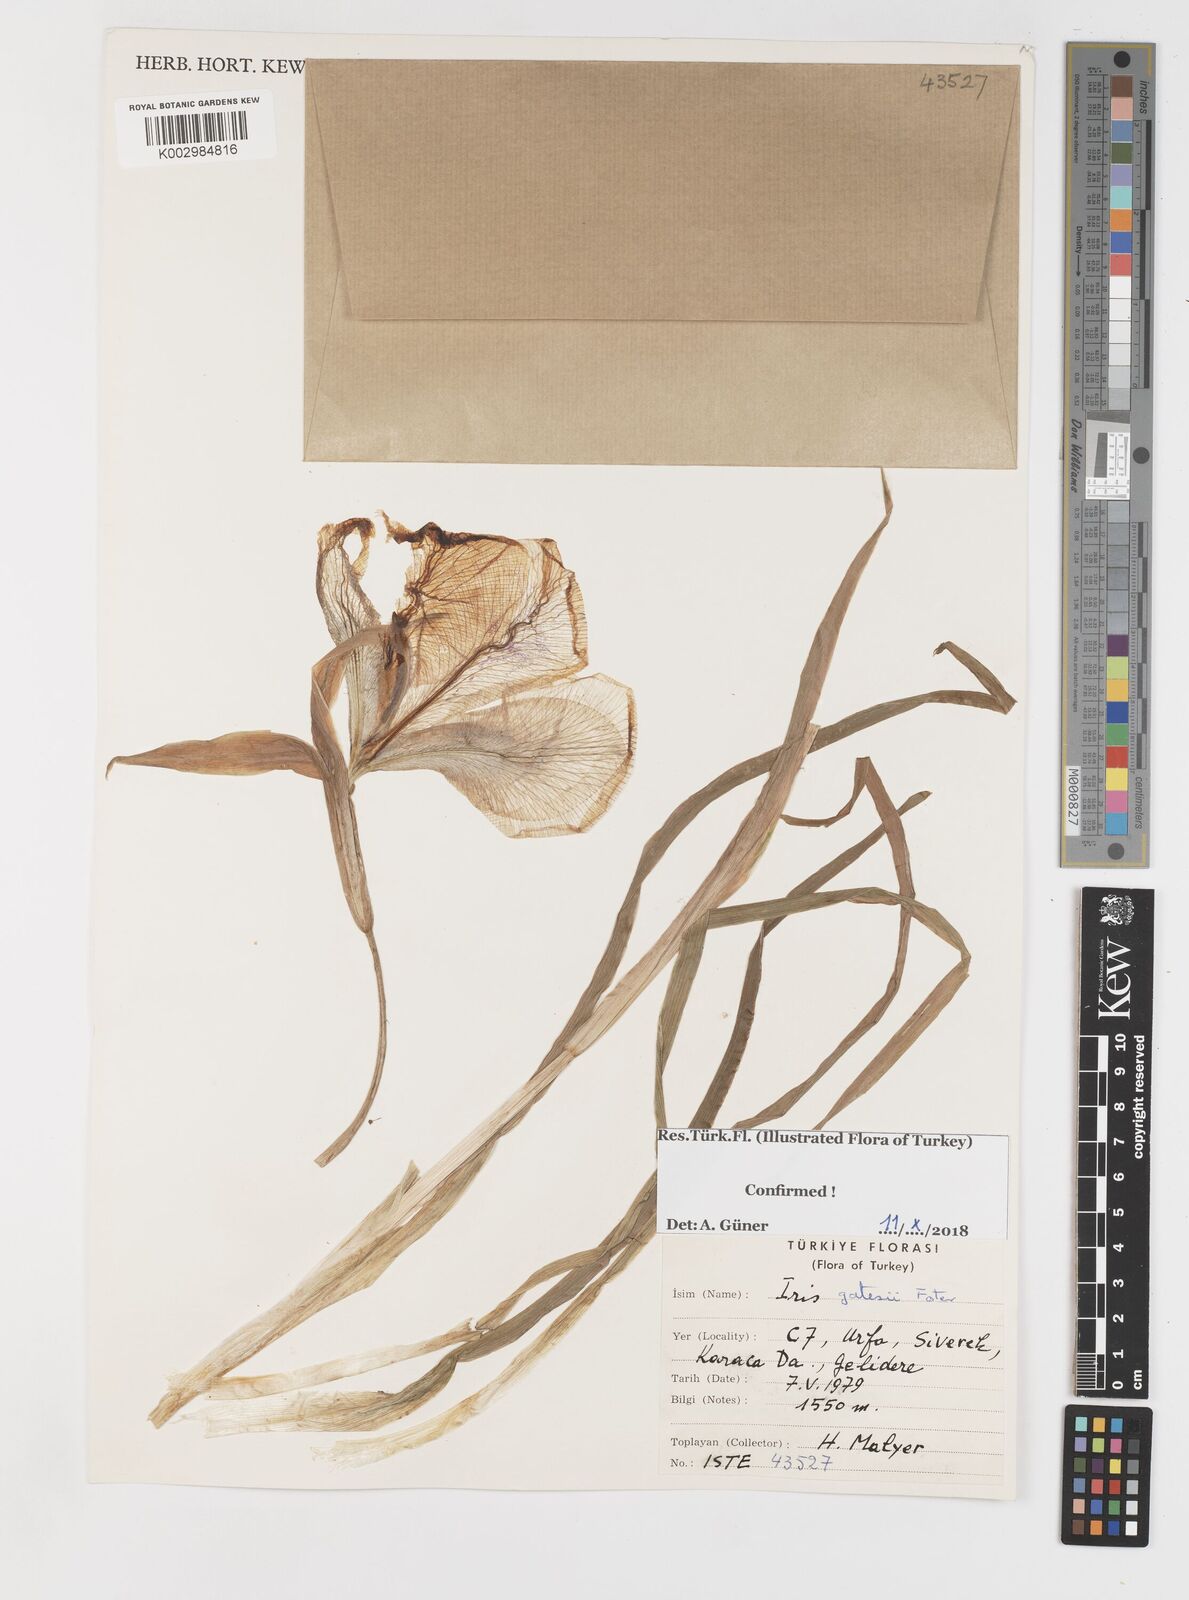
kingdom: Plantae
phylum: Tracheophyta
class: Liliopsida
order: Asparagales
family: Iridaceae
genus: Iris
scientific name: Iris gatesii
